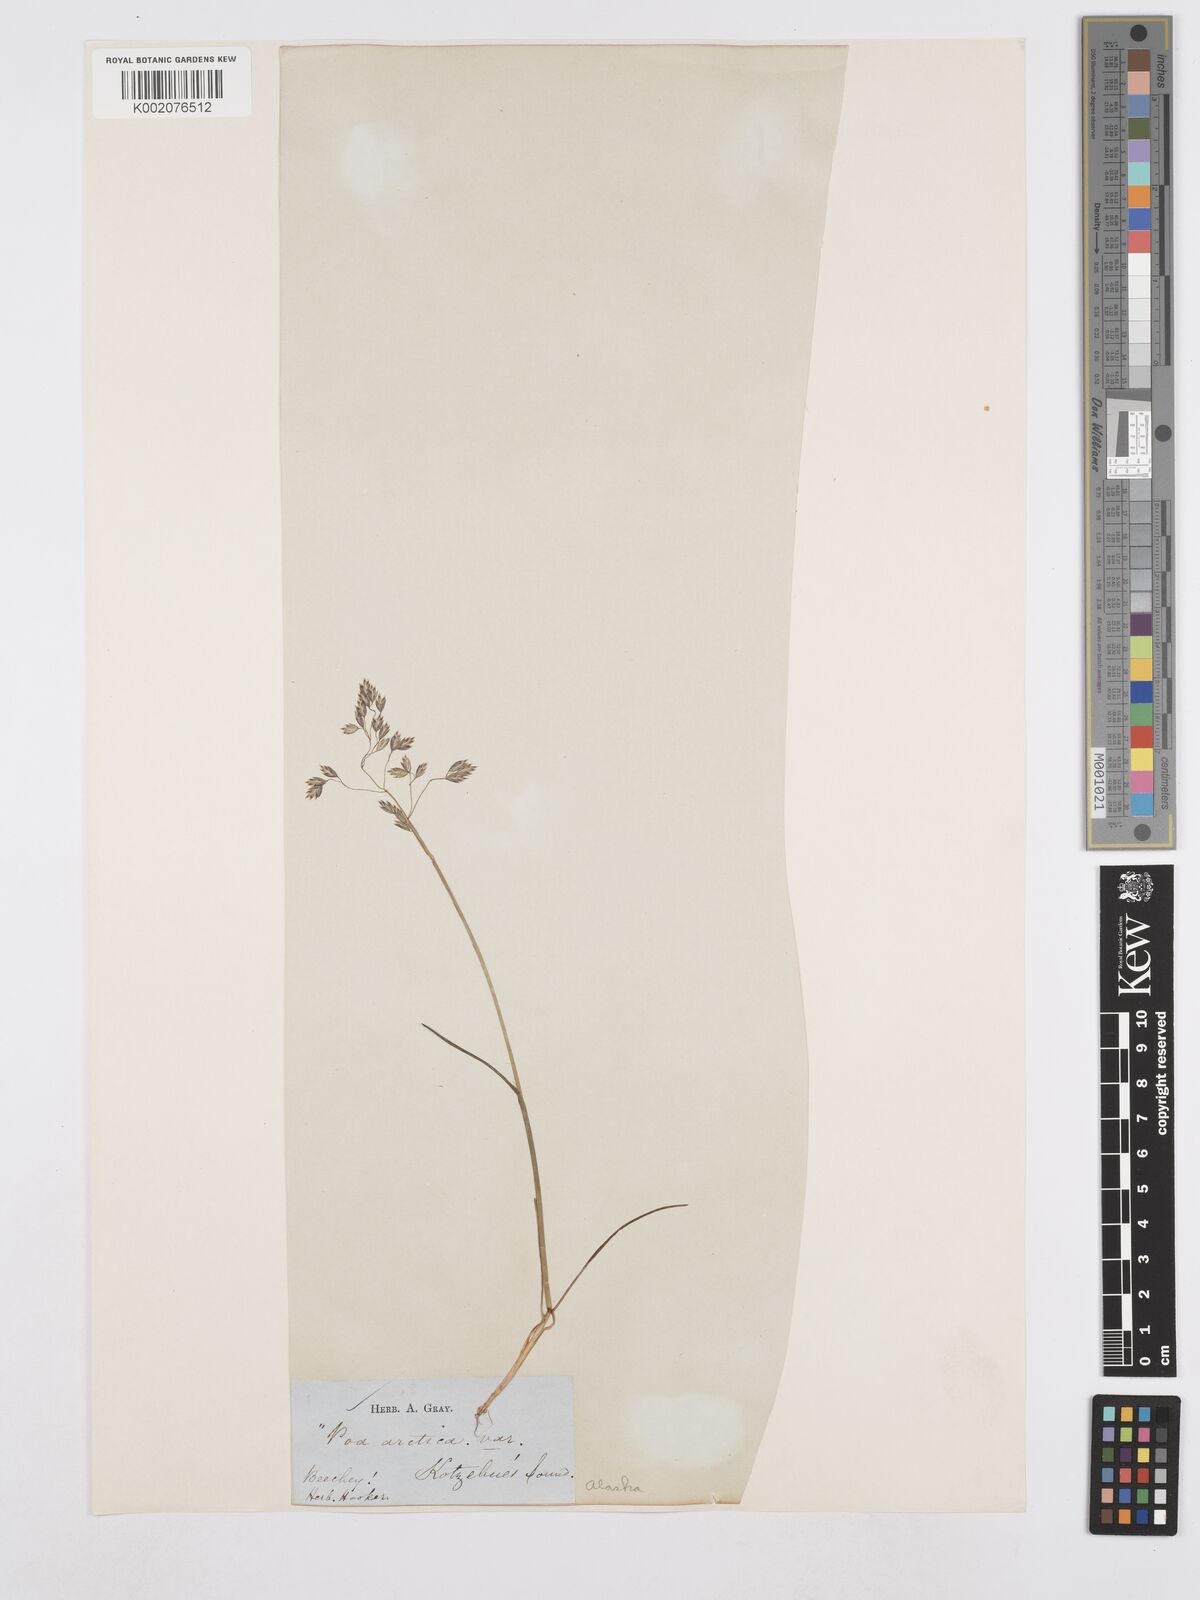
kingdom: Plantae
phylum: Tracheophyta
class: Liliopsida
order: Poales
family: Poaceae
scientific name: Poaceae
